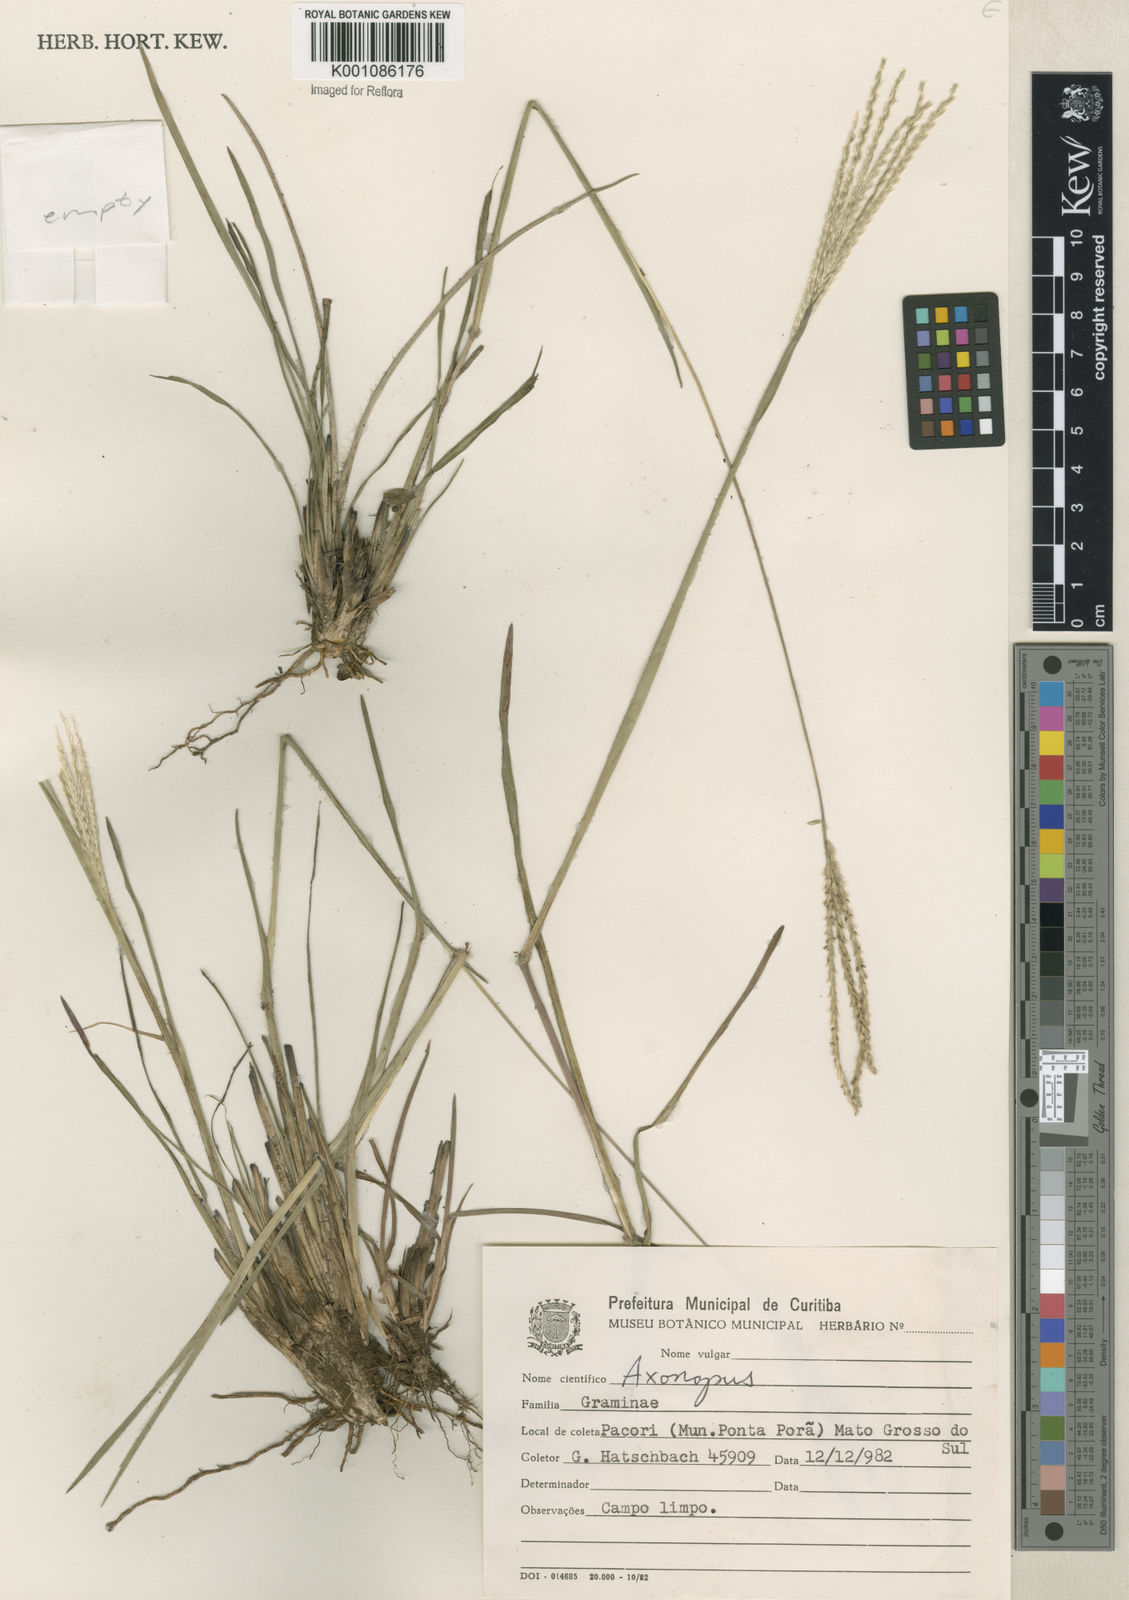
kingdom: Plantae
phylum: Tracheophyta
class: Liliopsida
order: Poales
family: Poaceae
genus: Axonopus
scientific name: Axonopus
